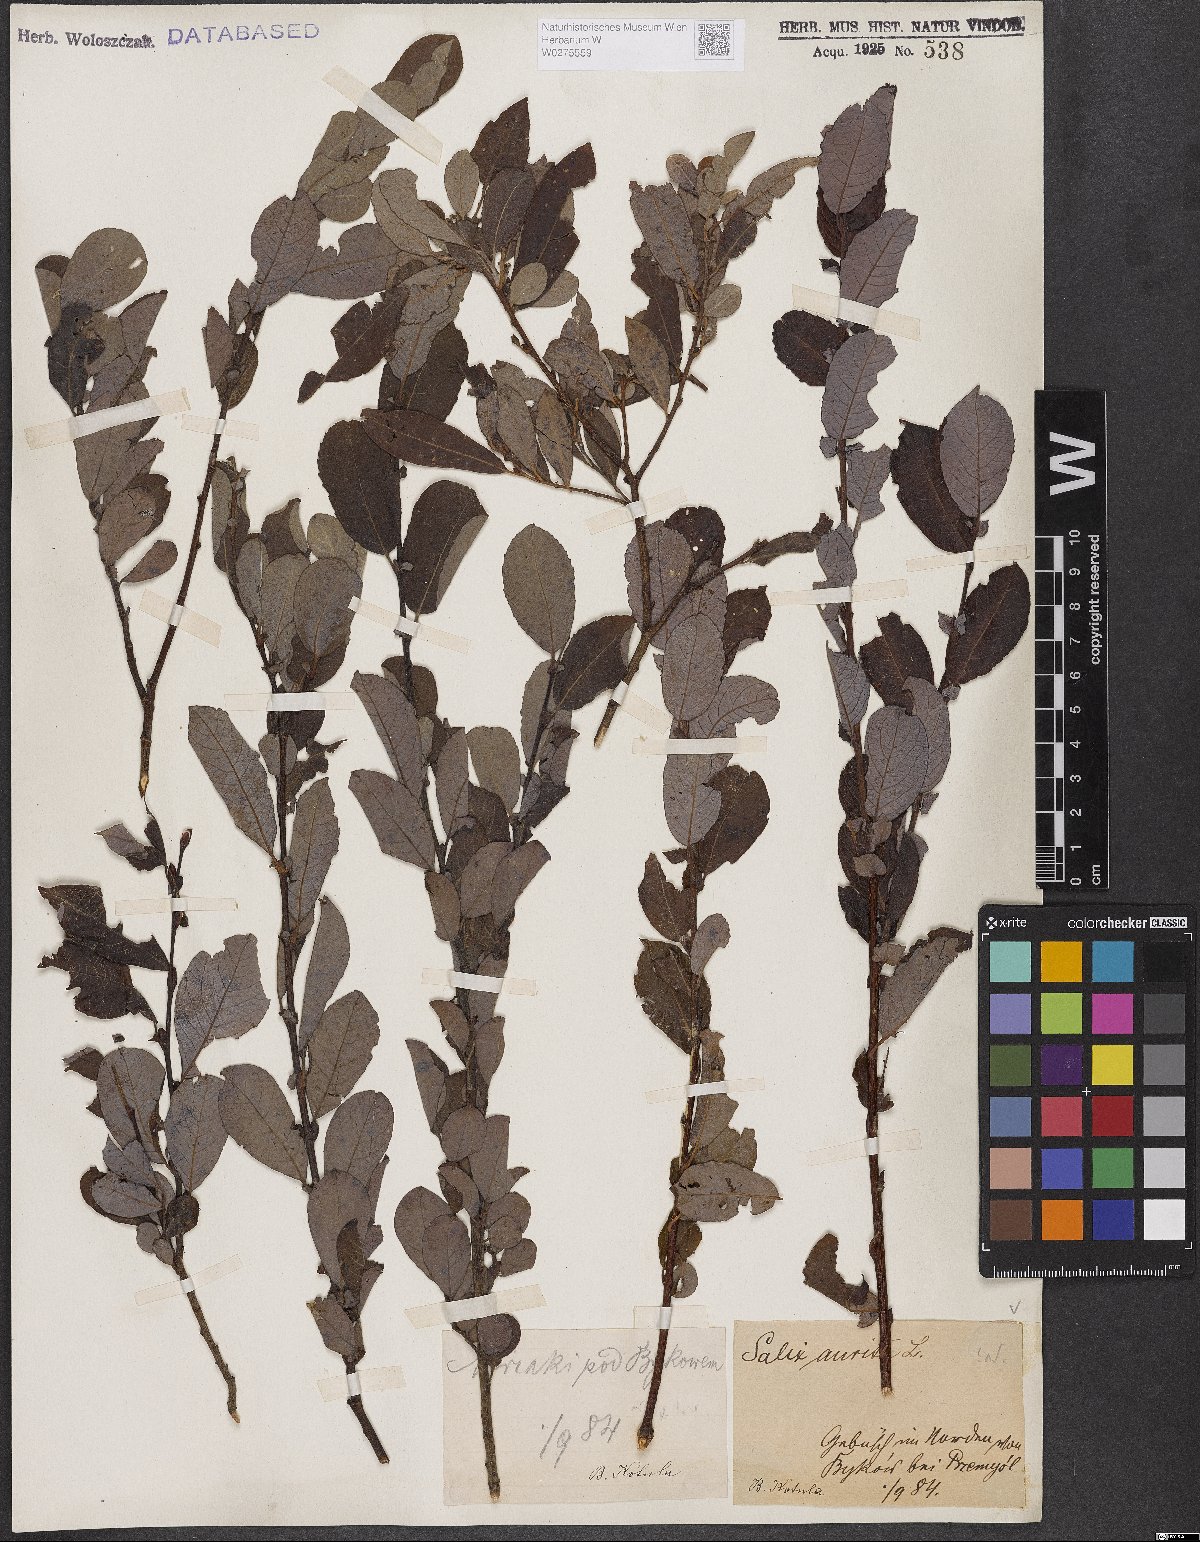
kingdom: Plantae
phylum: Tracheophyta
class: Magnoliopsida
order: Malpighiales
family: Salicaceae
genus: Salix
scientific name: Salix aurita
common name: Eared willow
